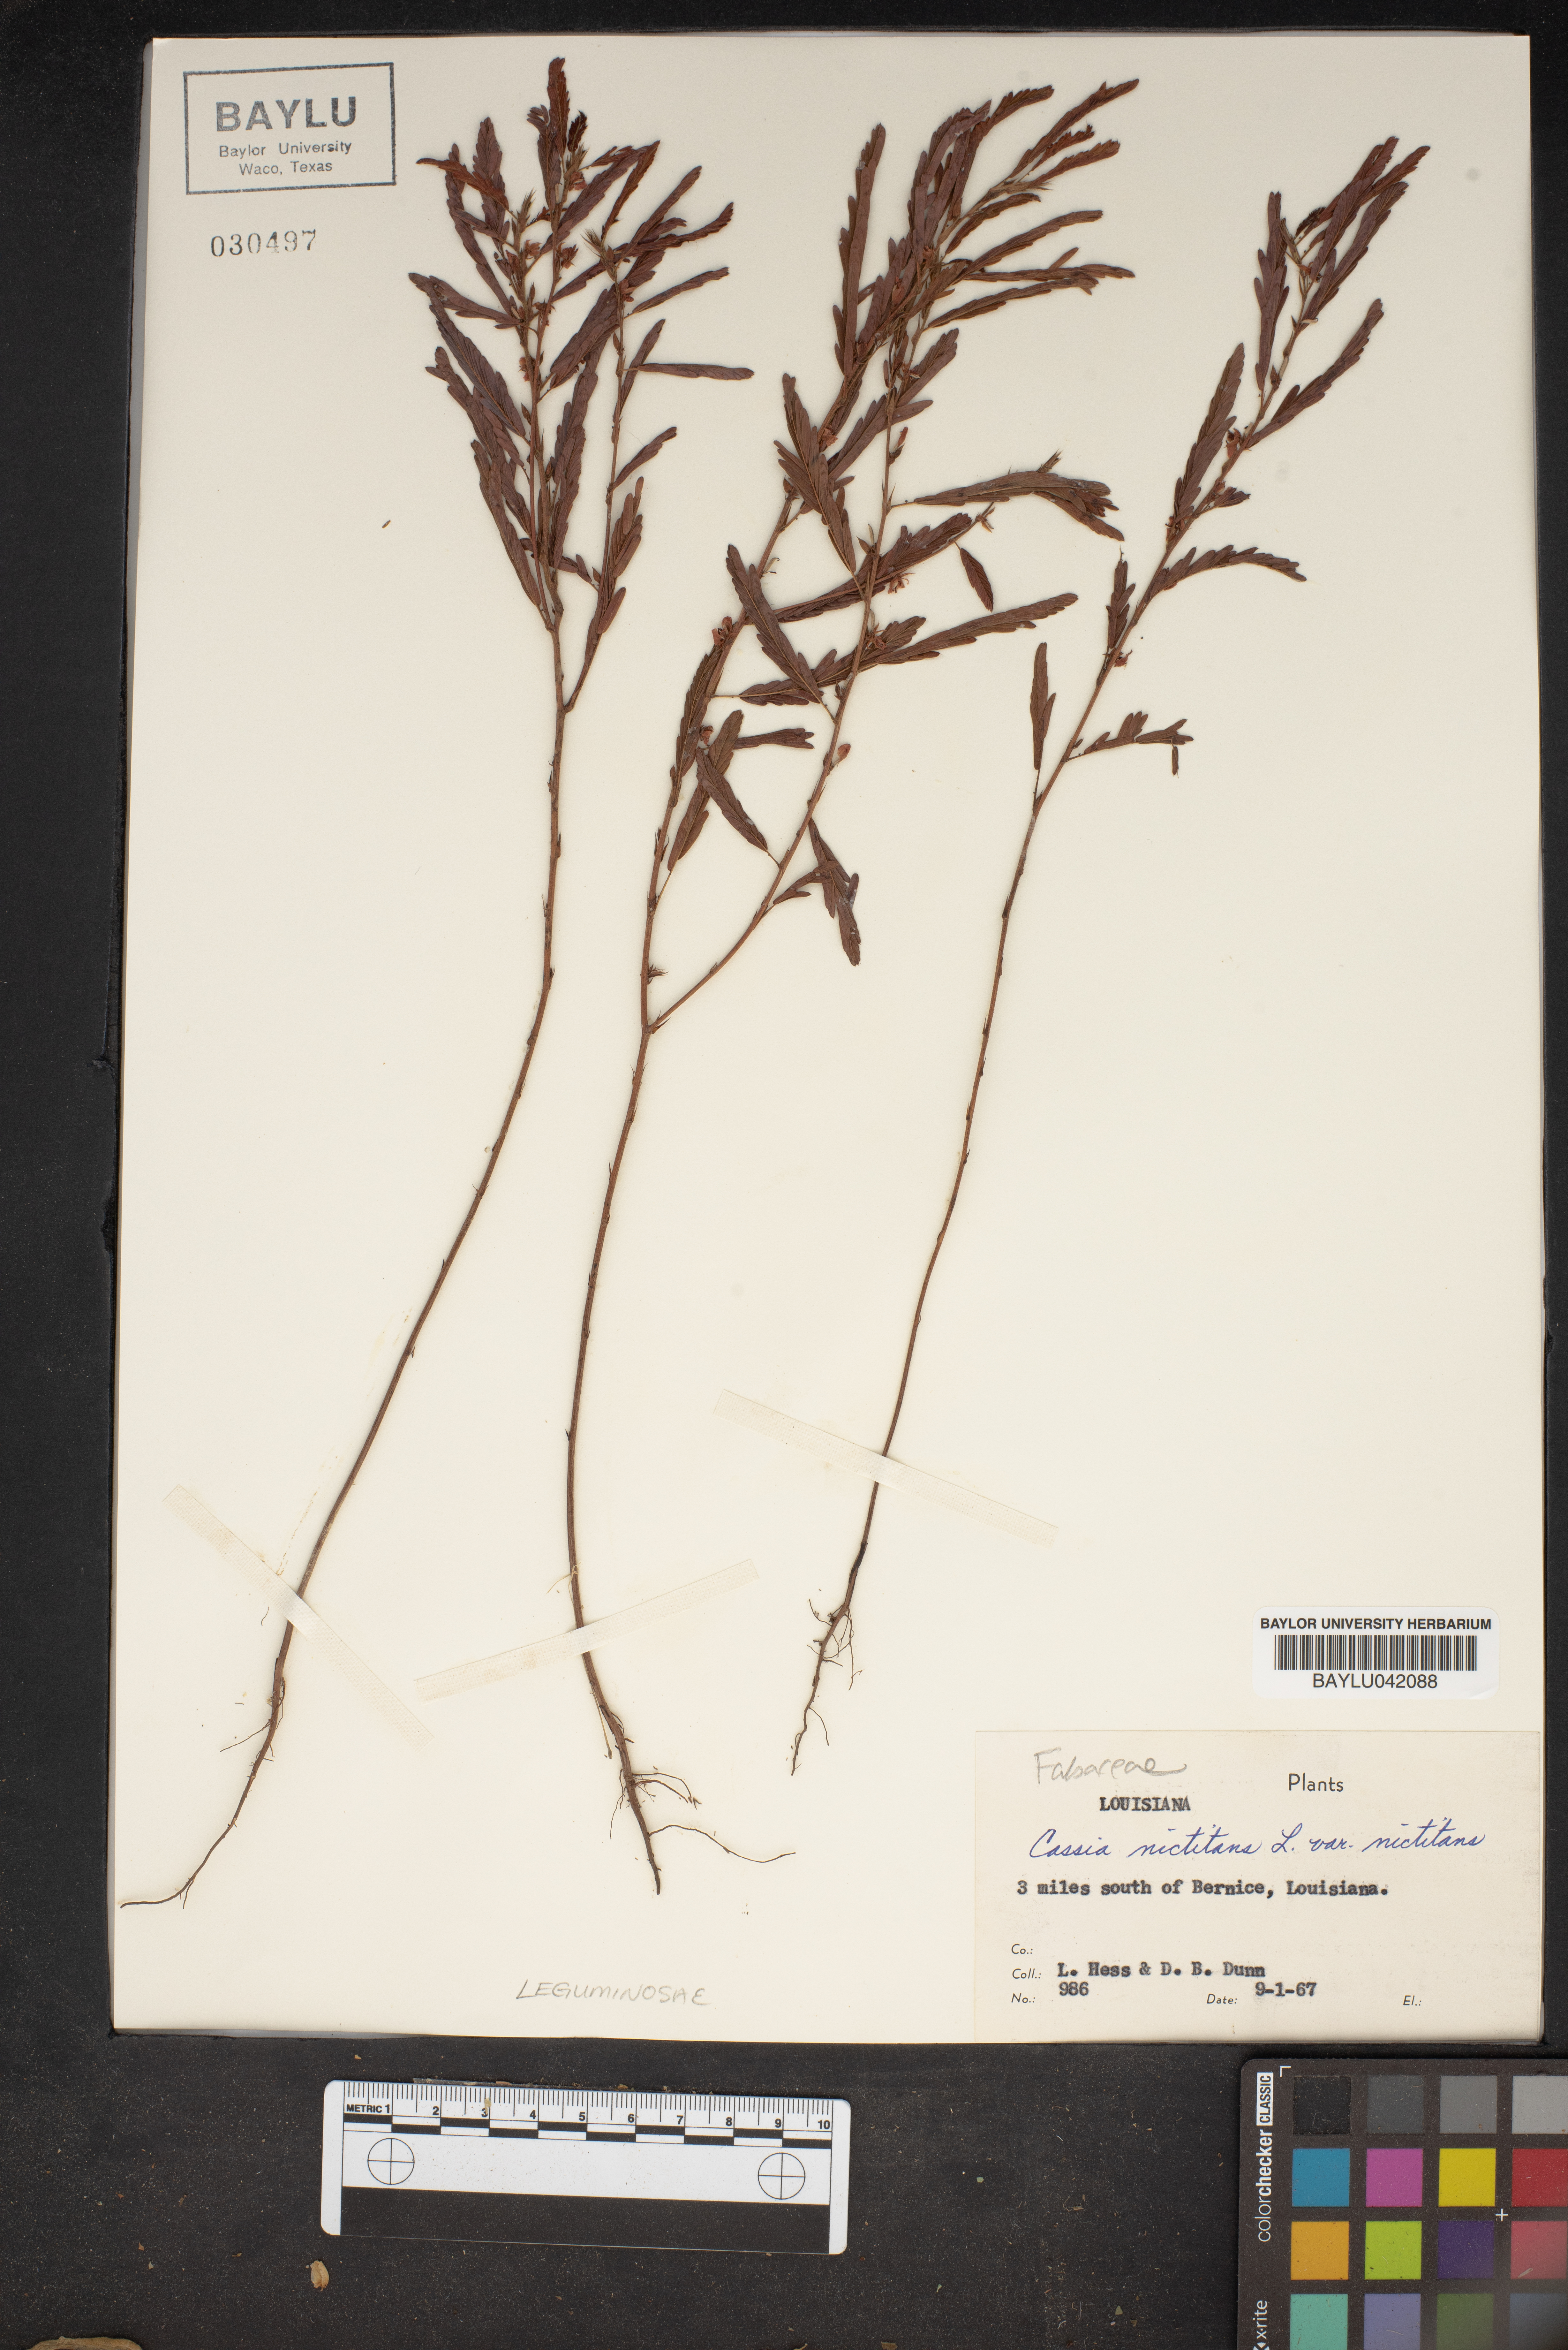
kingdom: Plantae
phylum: Tracheophyta
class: Magnoliopsida
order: Fabales
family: Fabaceae
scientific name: Fabaceae
